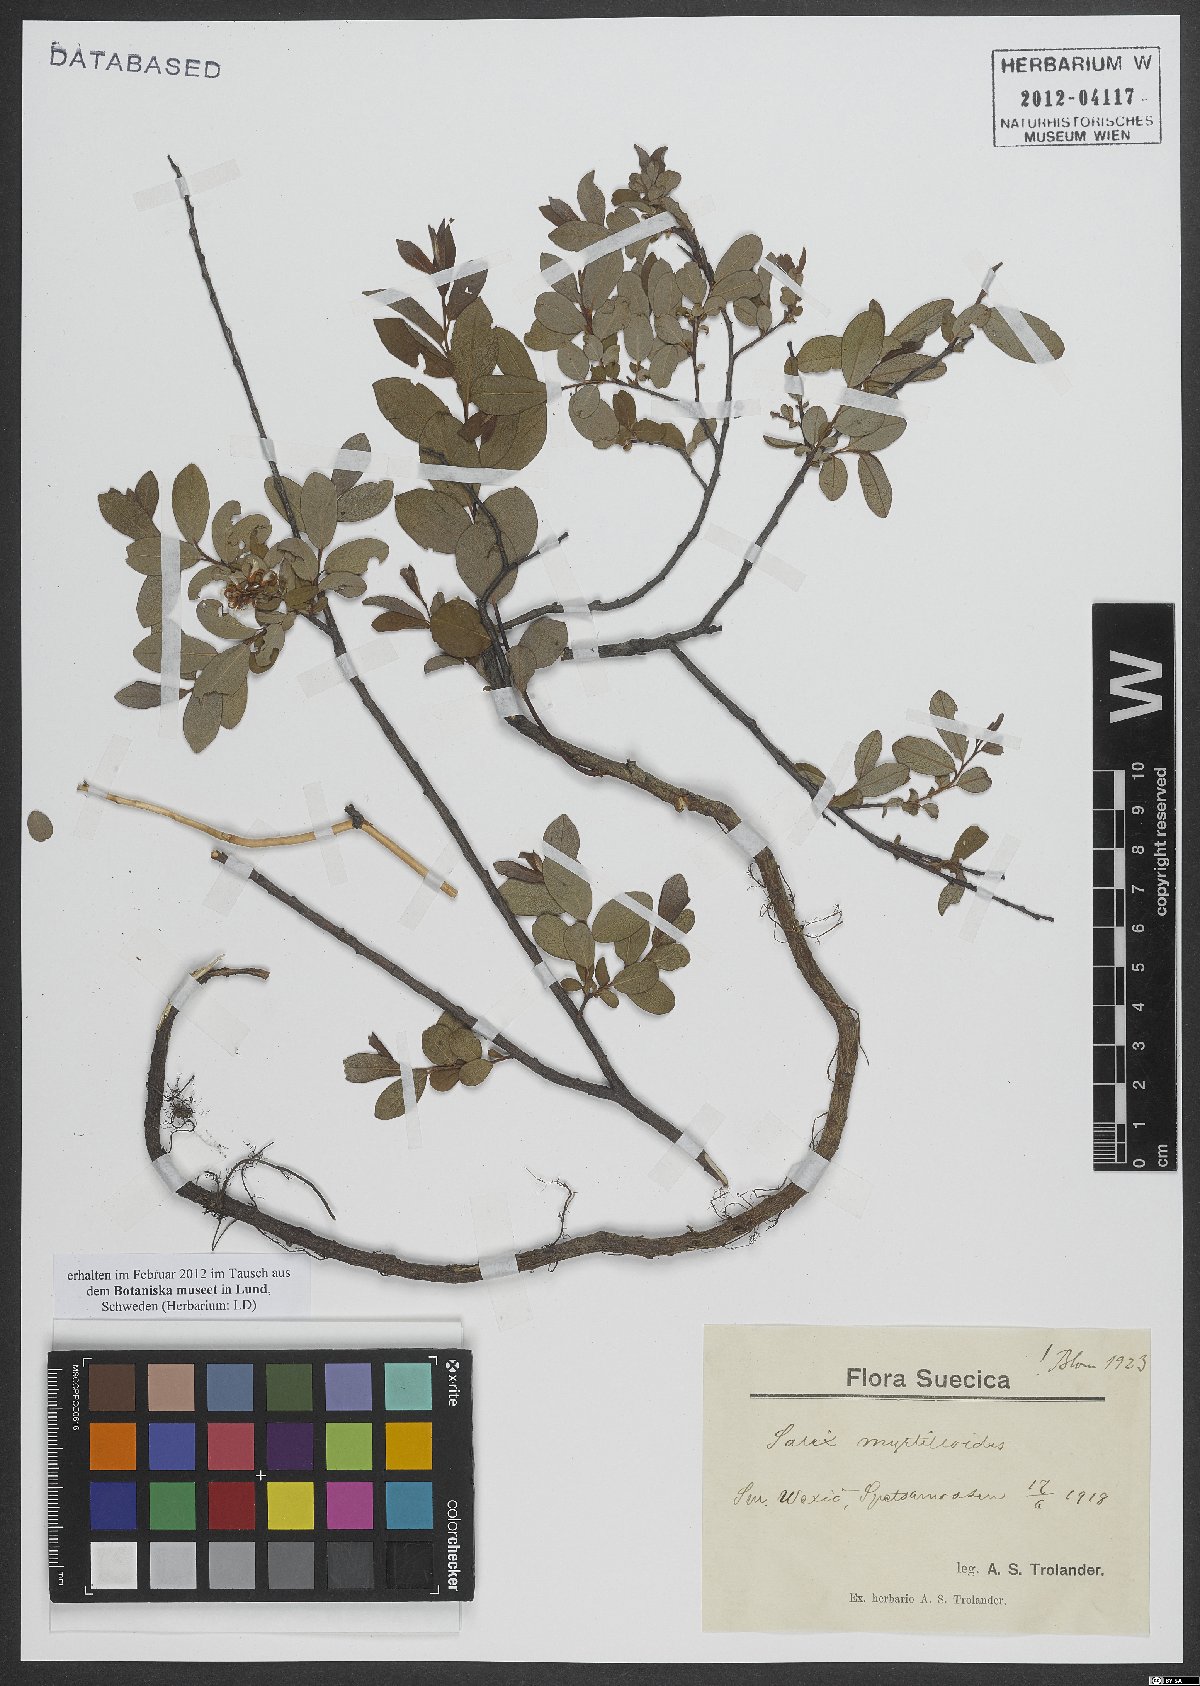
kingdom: Plantae
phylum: Tracheophyta
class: Magnoliopsida
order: Malpighiales
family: Salicaceae
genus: Salix
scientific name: Salix myrtilloides
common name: Myrtle-leaved willow
